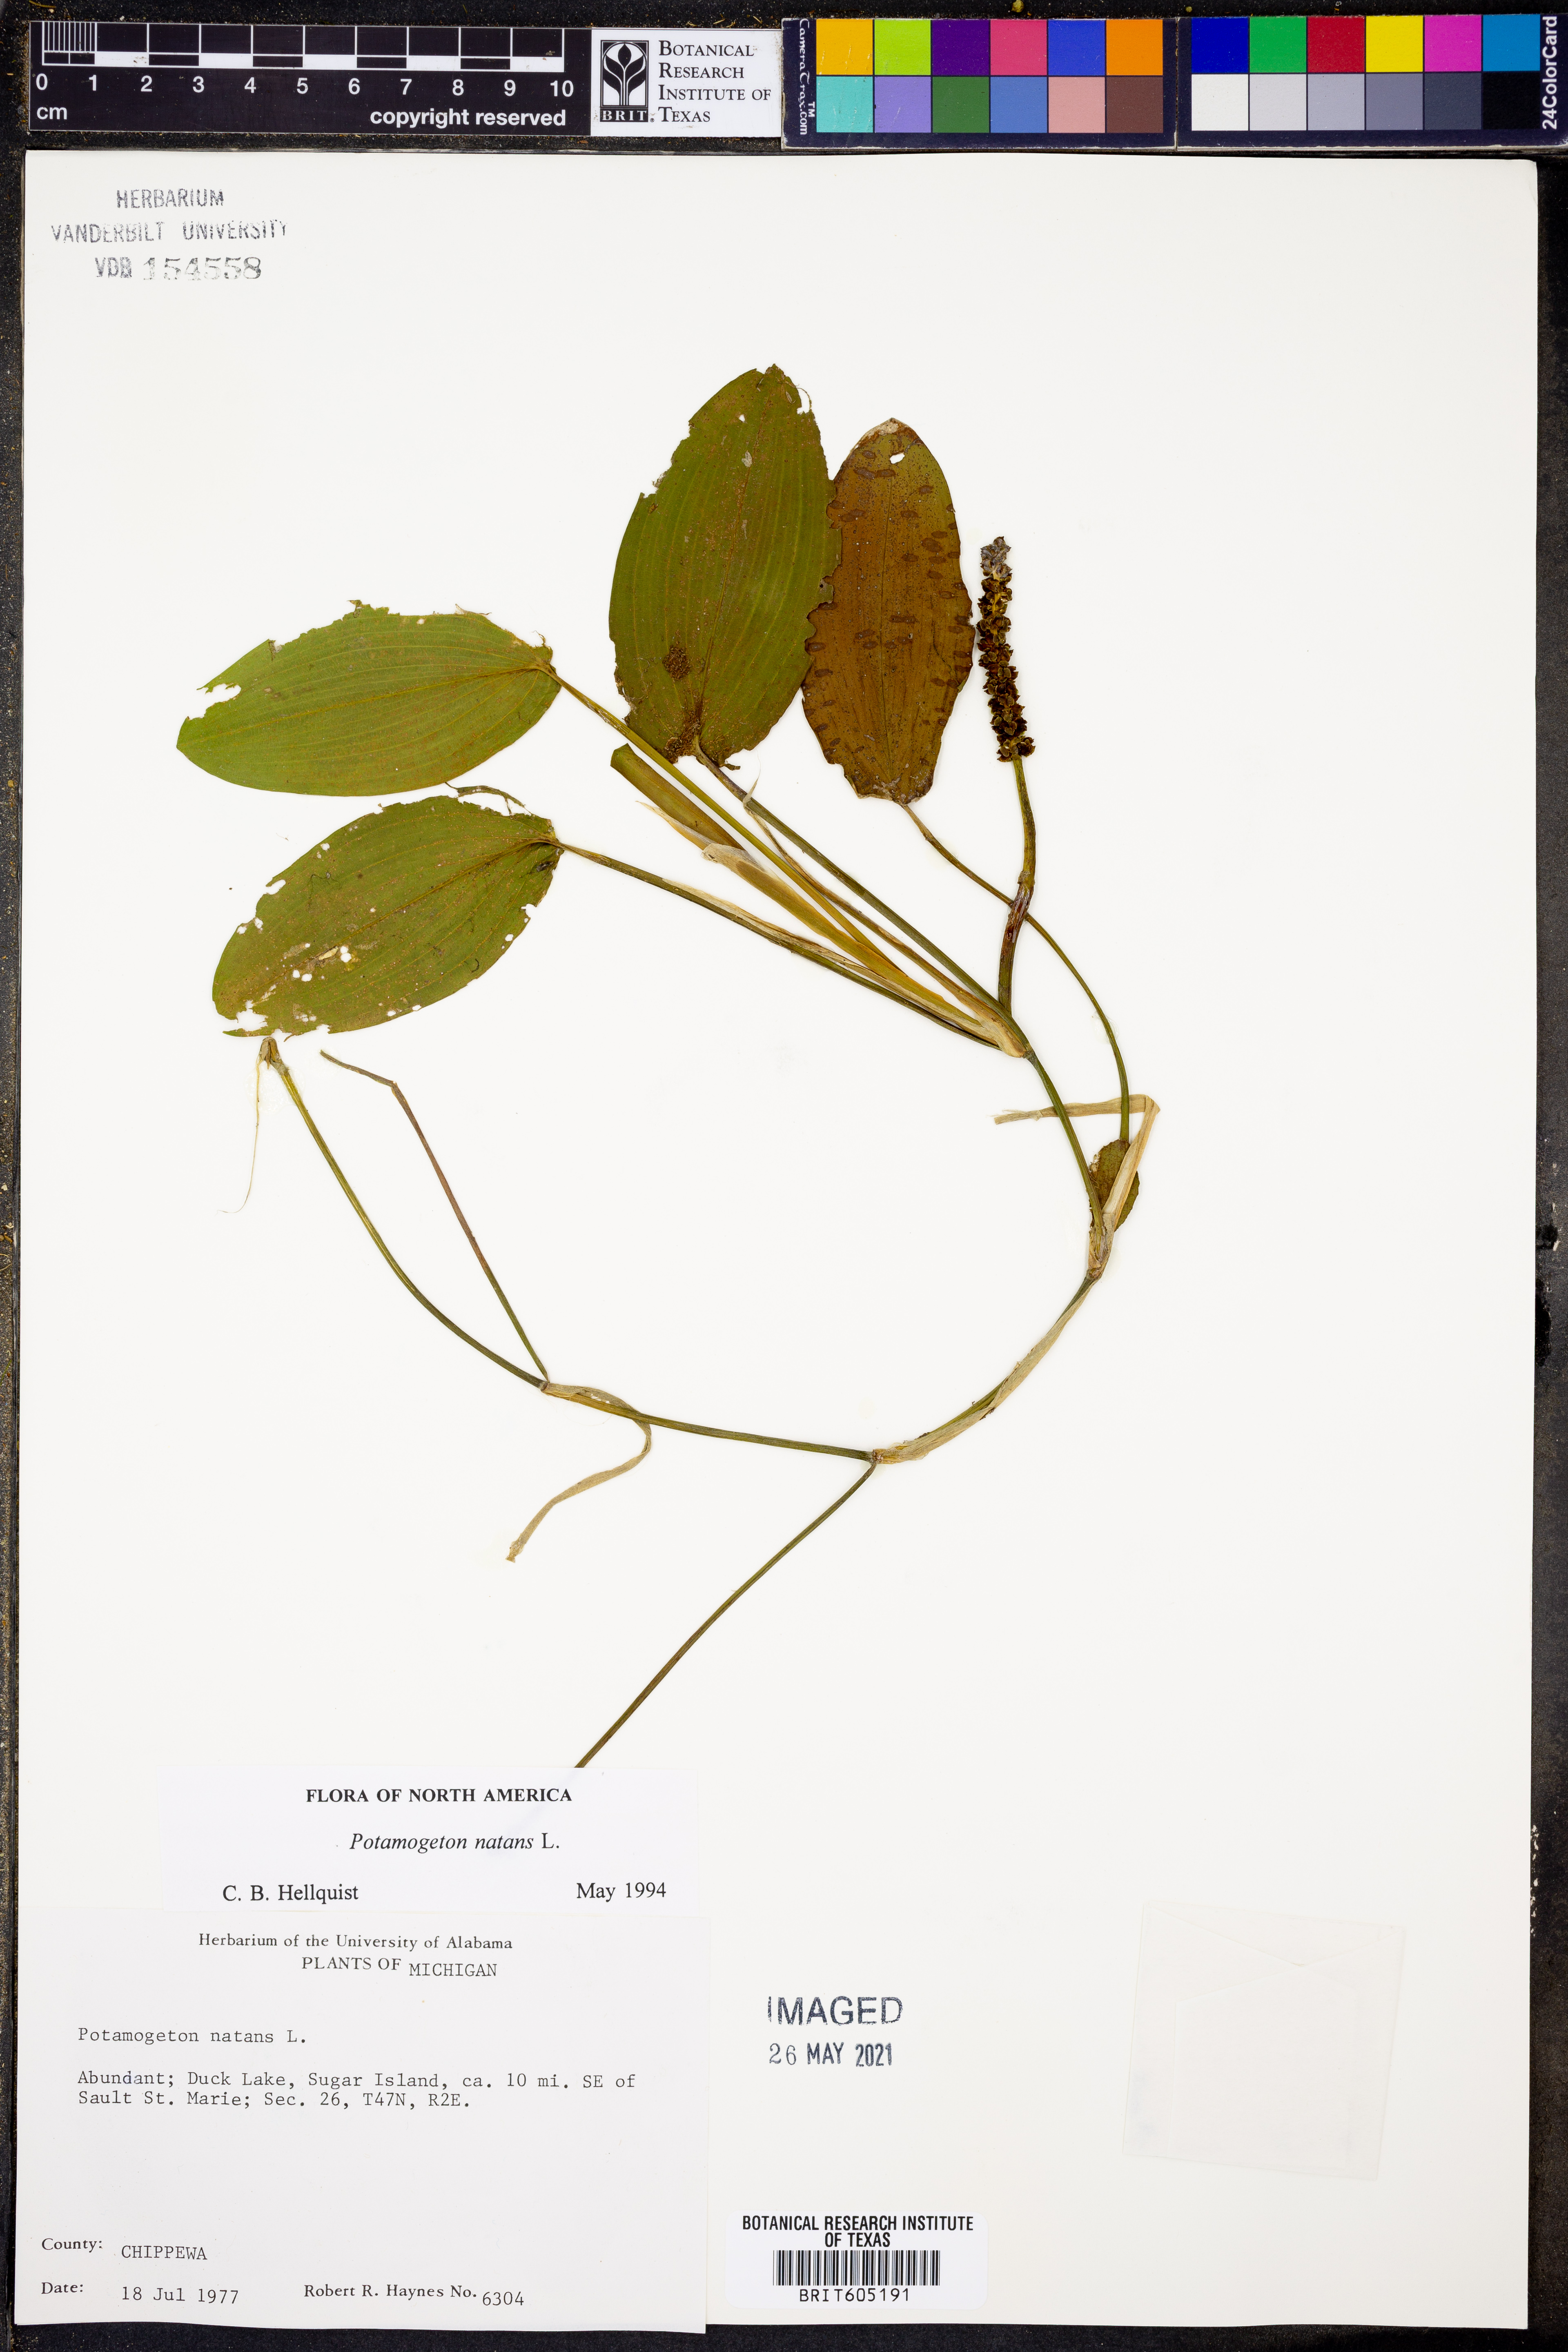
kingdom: Plantae
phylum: Tracheophyta
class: Liliopsida
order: Alismatales
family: Potamogetonaceae
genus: Potamogeton
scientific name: Potamogeton natans
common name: Broad-leaved pondweed
